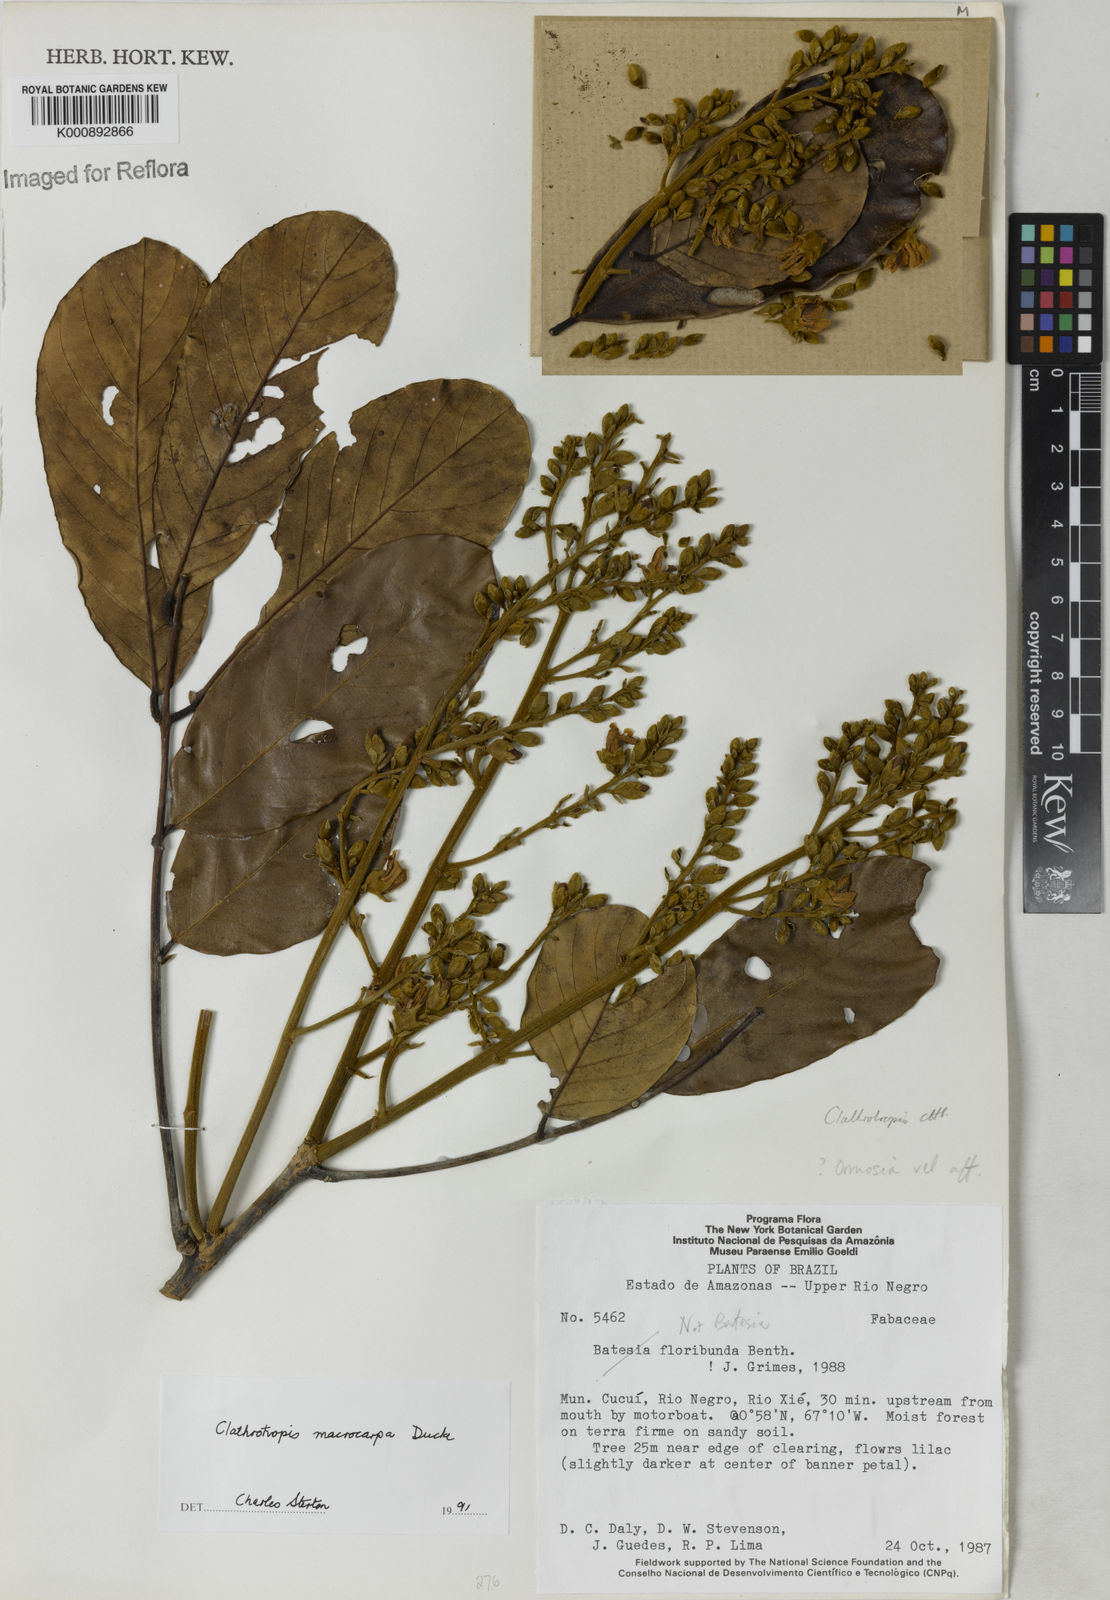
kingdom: Plantae
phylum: Tracheophyta
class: Magnoliopsida
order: Fabales
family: Fabaceae
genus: Clathrotropis
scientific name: Clathrotropis macrocarpa
